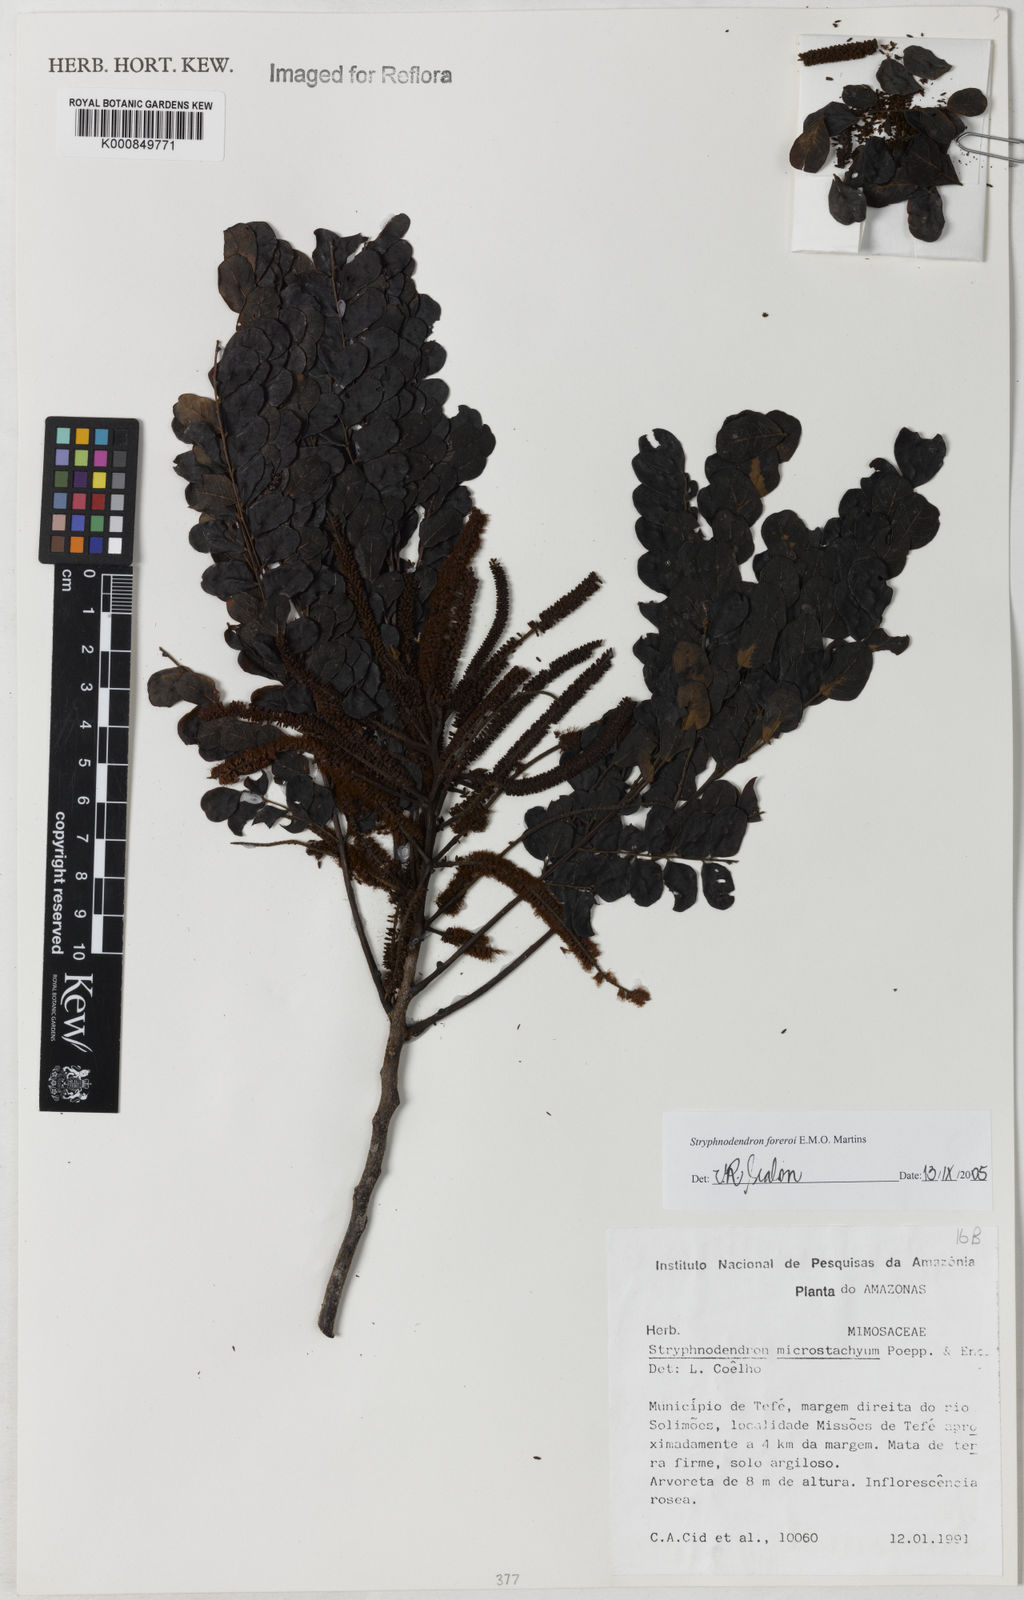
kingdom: Plantae
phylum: Tracheophyta
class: Magnoliopsida
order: Fabales
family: Fabaceae
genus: Stryphnodendron
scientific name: Stryphnodendron foreroi
